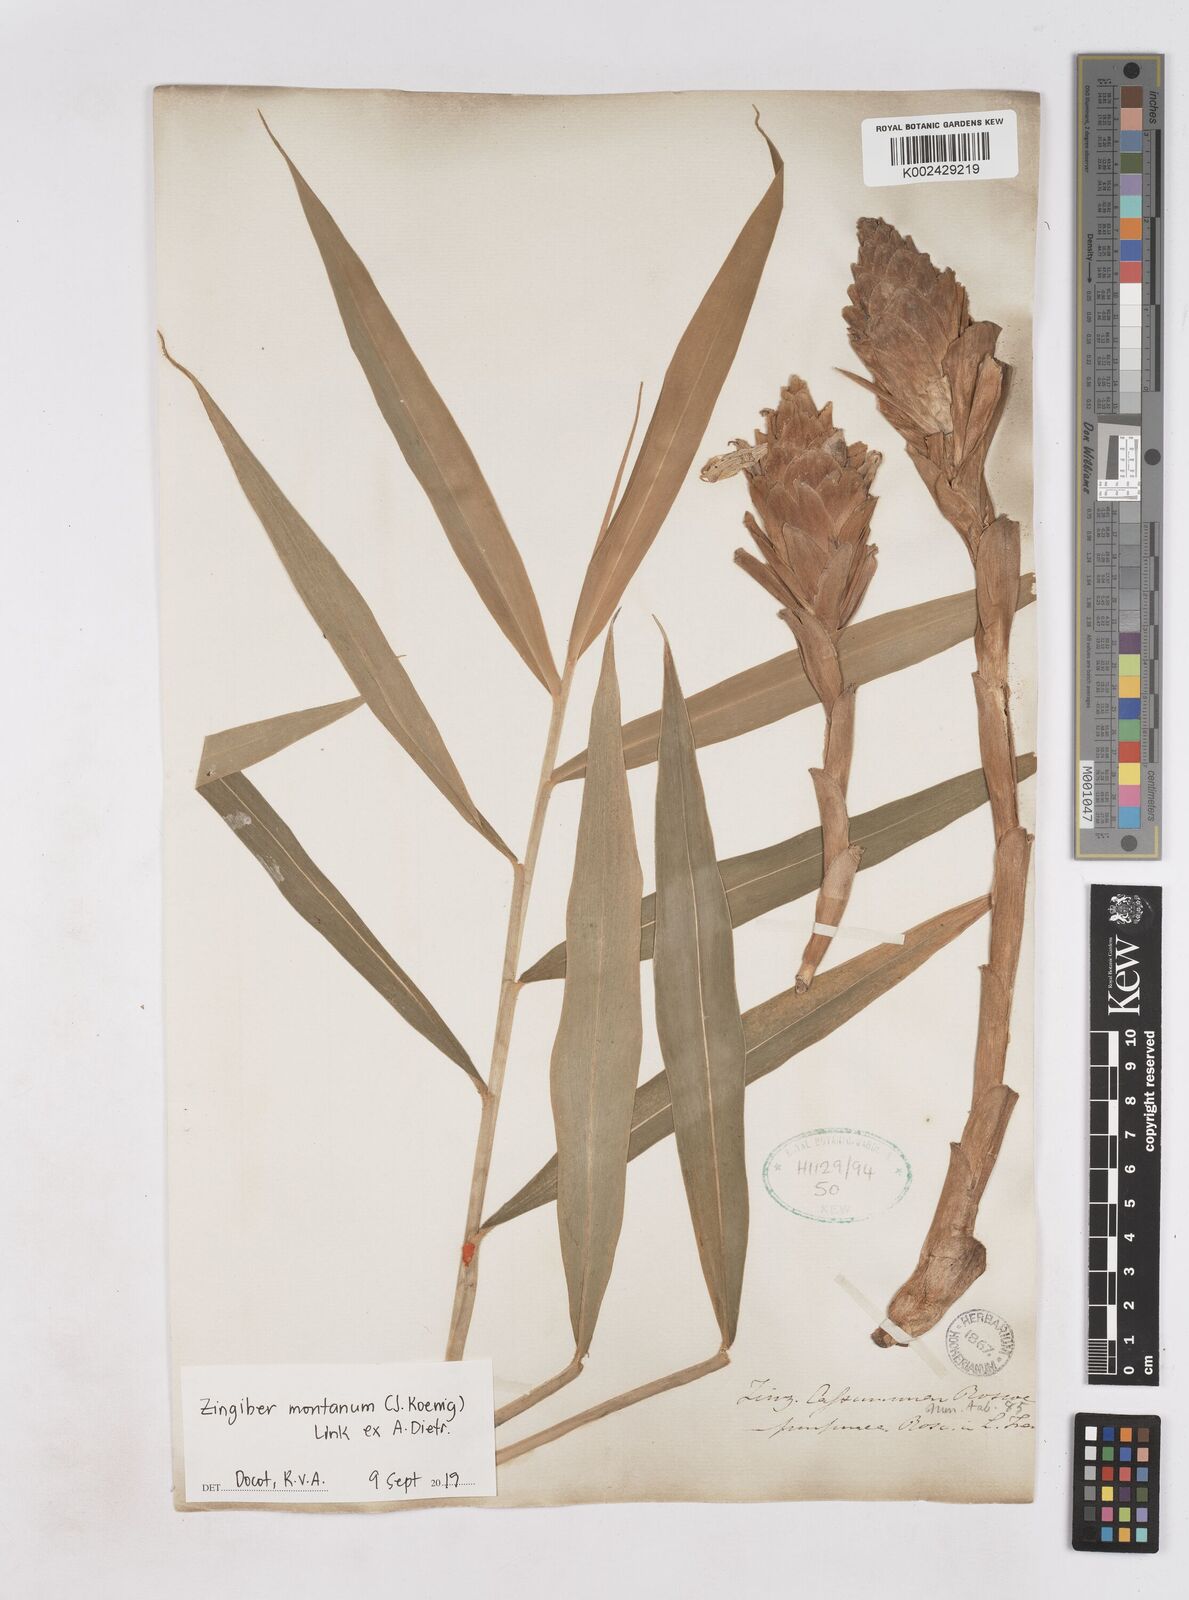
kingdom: Plantae
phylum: Tracheophyta
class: Liliopsida
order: Zingiberales
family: Zingiberaceae
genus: Zingiber
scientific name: Zingiber montanum
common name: Bengal ginger
